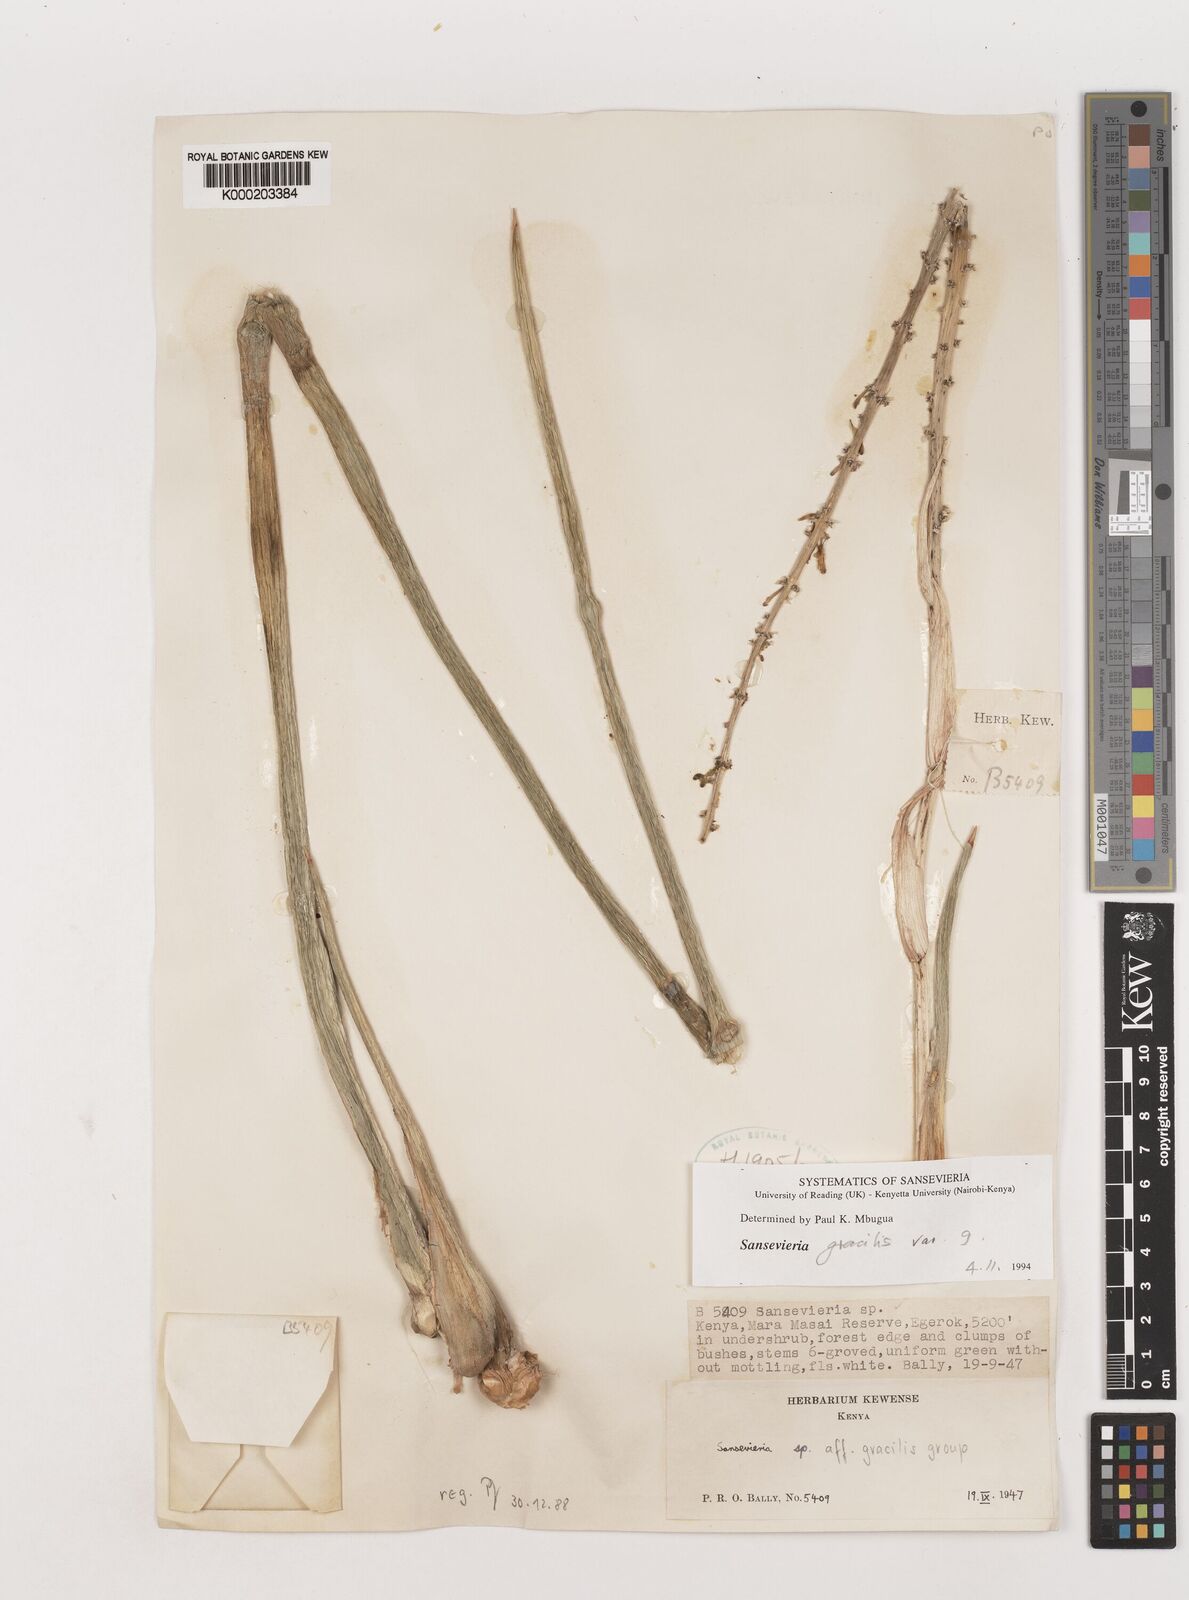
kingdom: Plantae
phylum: Tracheophyta
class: Liliopsida
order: Asparagales
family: Asparagaceae
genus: Dracaena
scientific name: Dracaena serpenta
